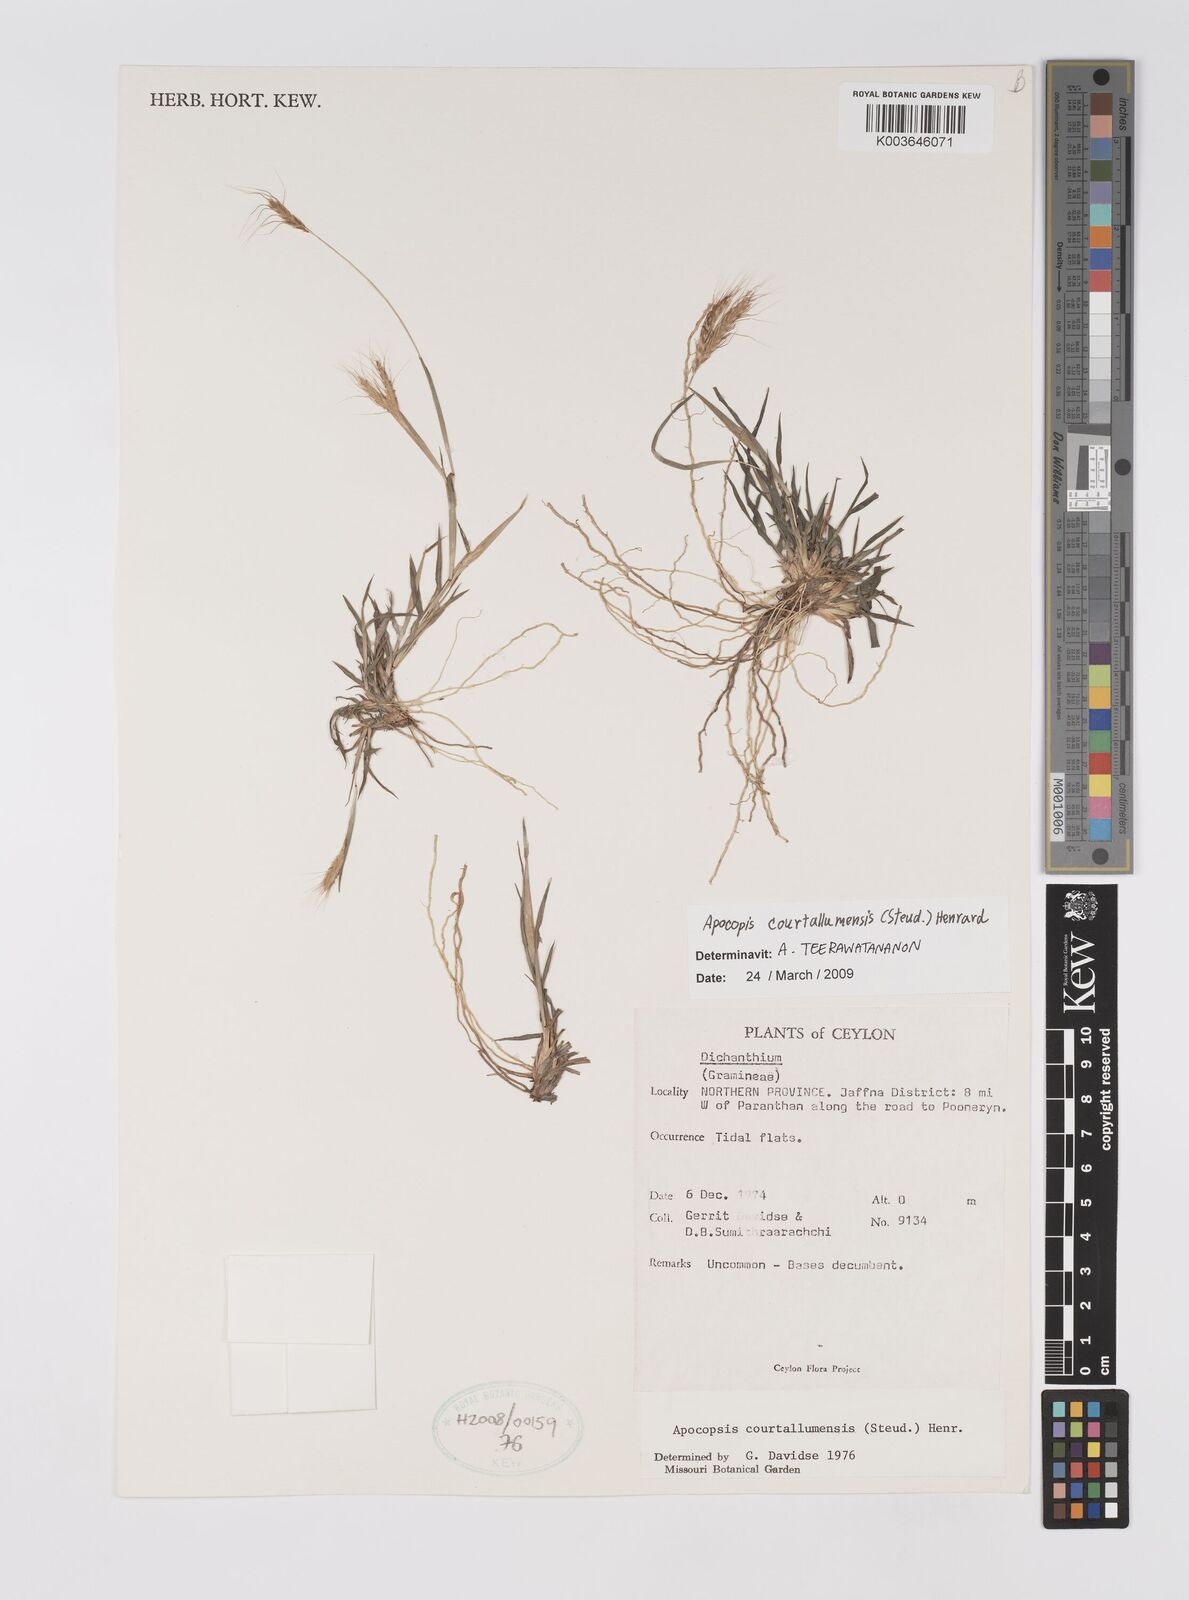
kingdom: Plantae
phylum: Tracheophyta
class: Liliopsida
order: Poales
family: Poaceae
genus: Apocopis
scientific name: Apocopis courtallumensis
